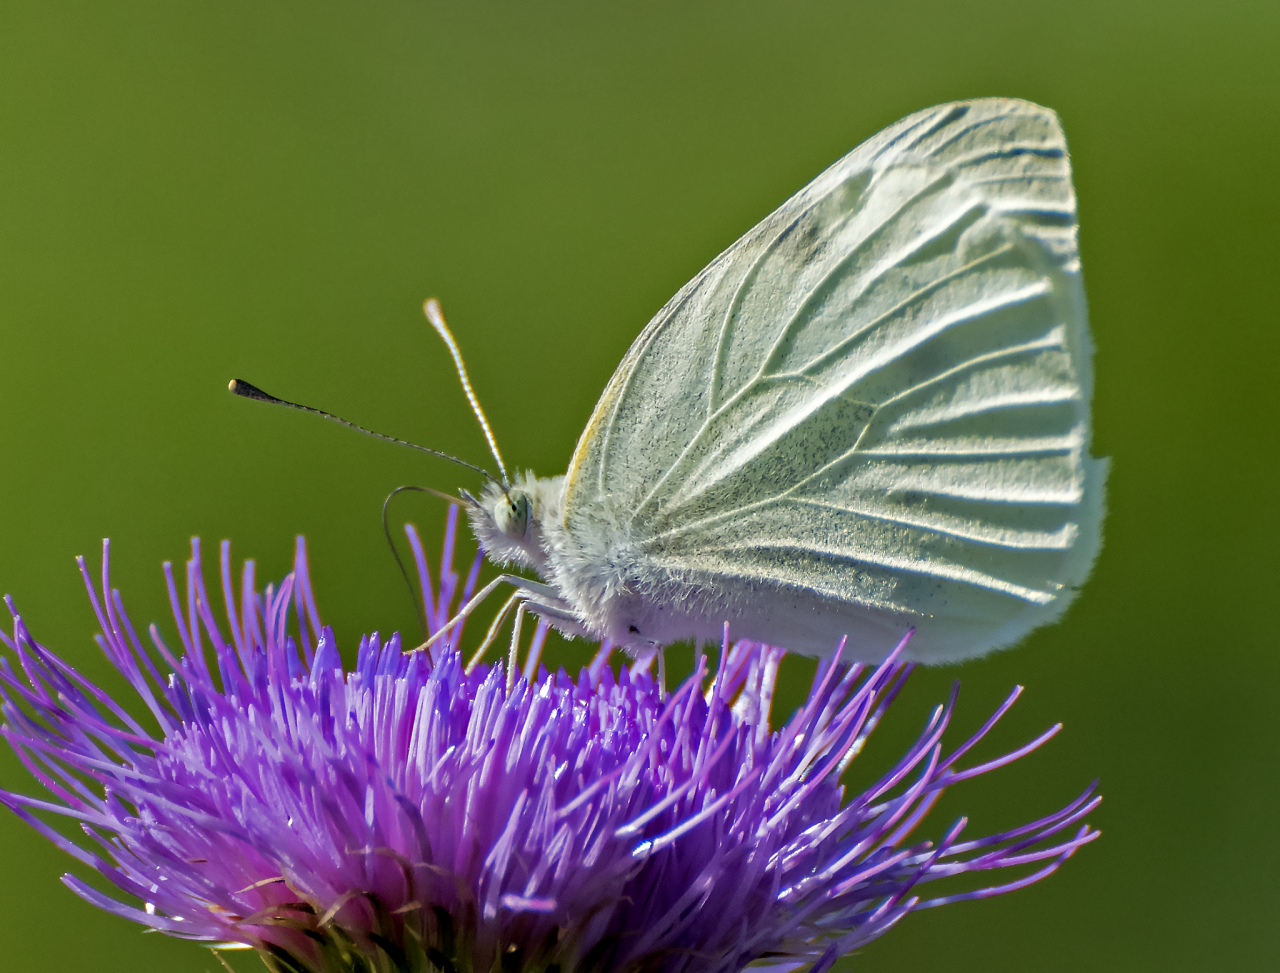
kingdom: Animalia
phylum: Arthropoda
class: Insecta
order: Lepidoptera
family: Pieridae
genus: Pieris
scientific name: Pieris rapae
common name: Cabbage White
